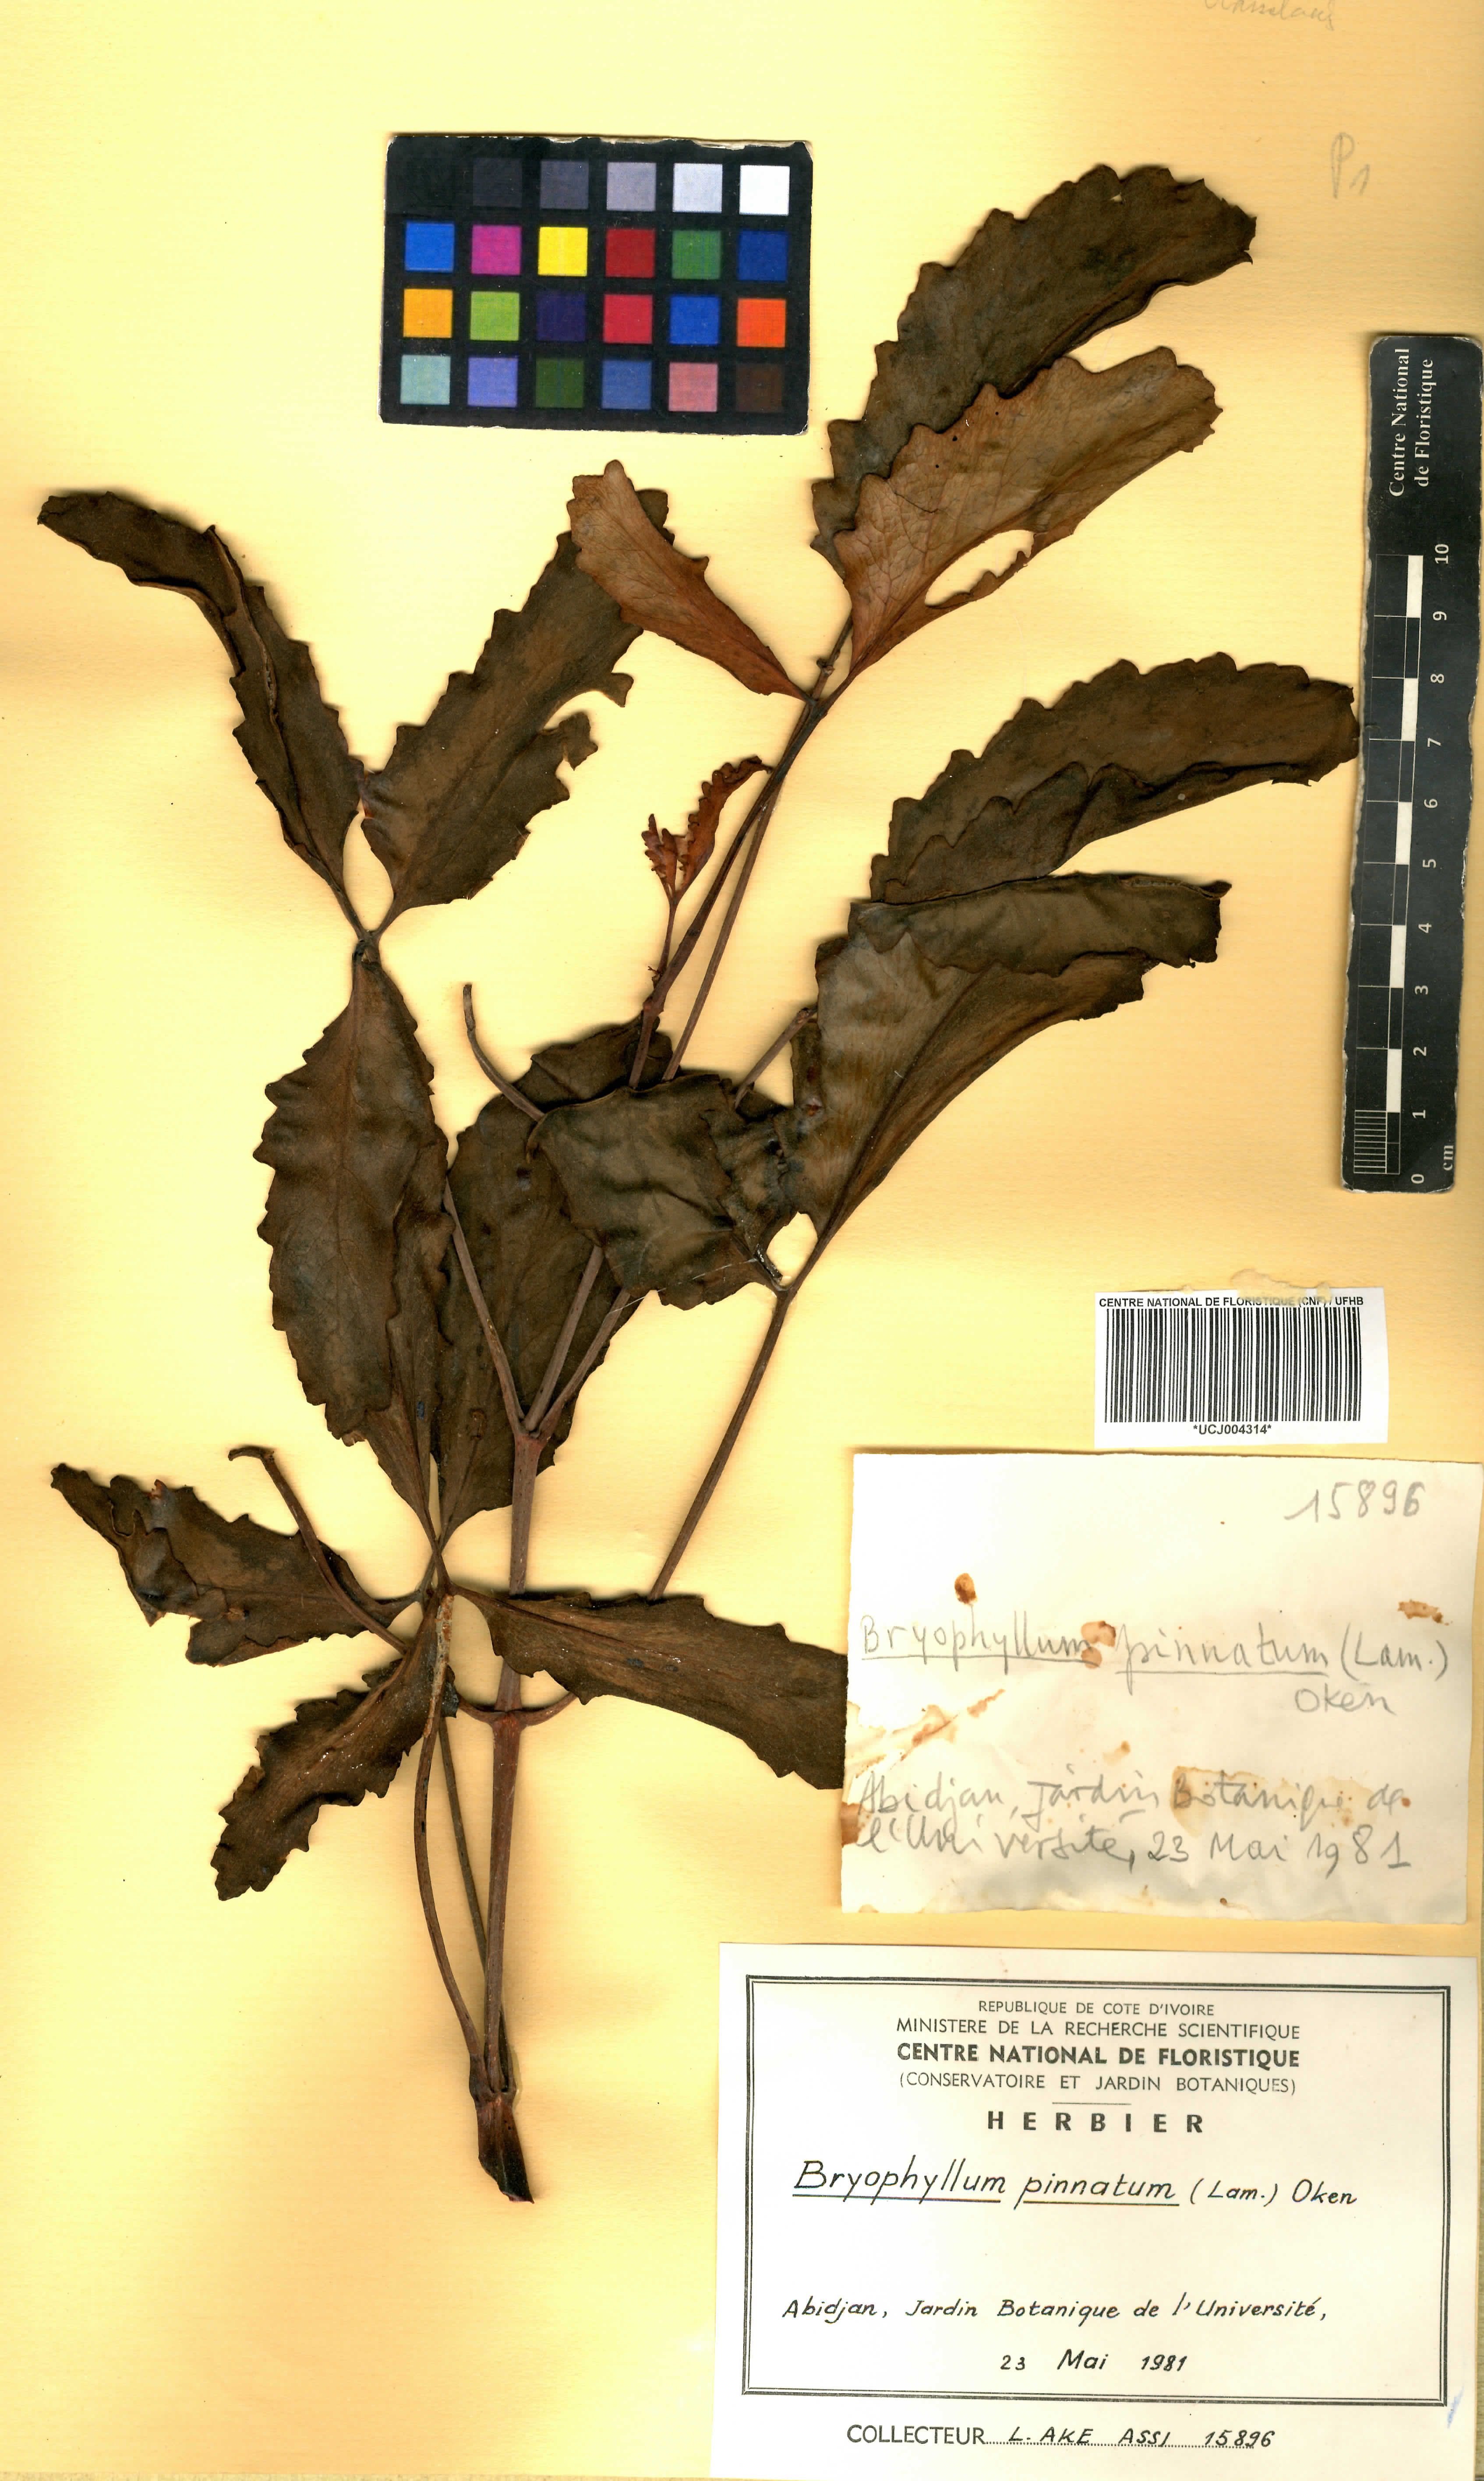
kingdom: Plantae
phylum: Tracheophyta
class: Magnoliopsida
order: Saxifragales
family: Crassulaceae
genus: Kalanchoe
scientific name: Kalanchoe pinnata
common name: Cathedral bells
